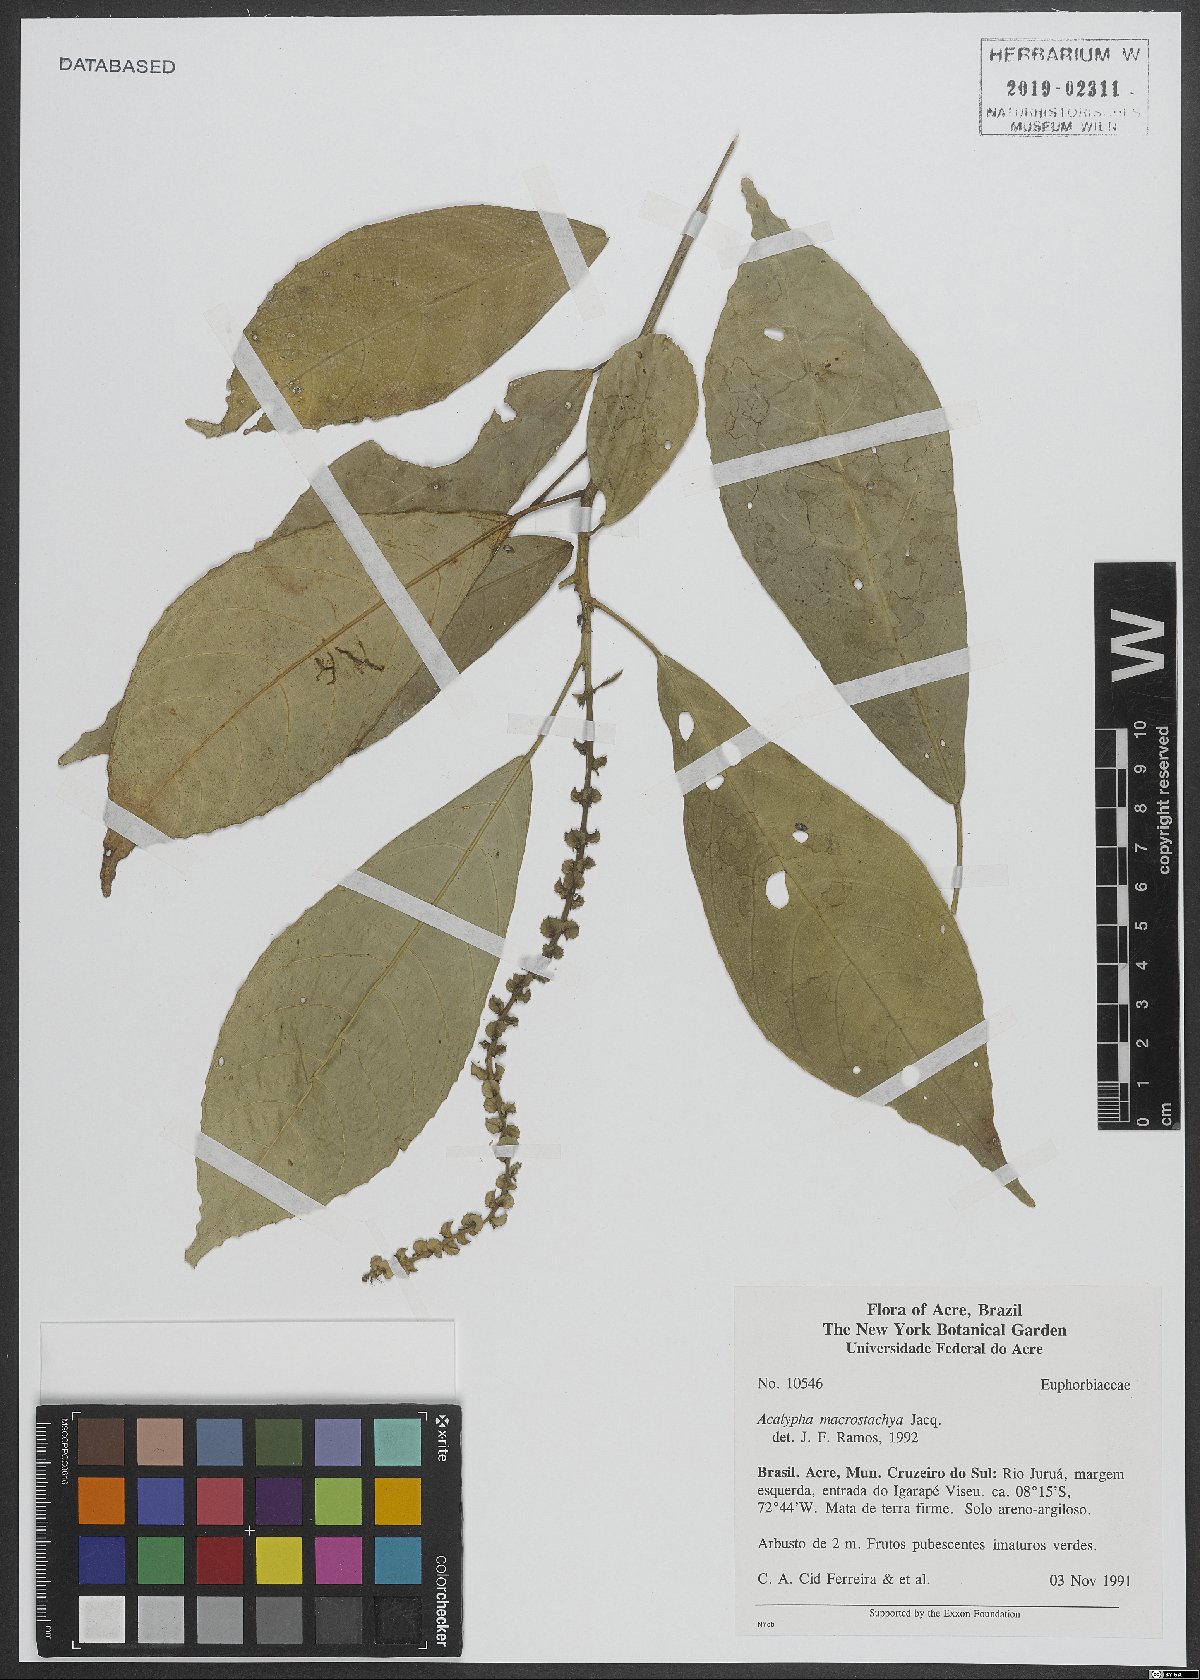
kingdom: Plantae
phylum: Tracheophyta
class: Magnoliopsida
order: Malpighiales
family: Euphorbiaceae
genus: Acalypha
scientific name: Acalypha macrostachya
